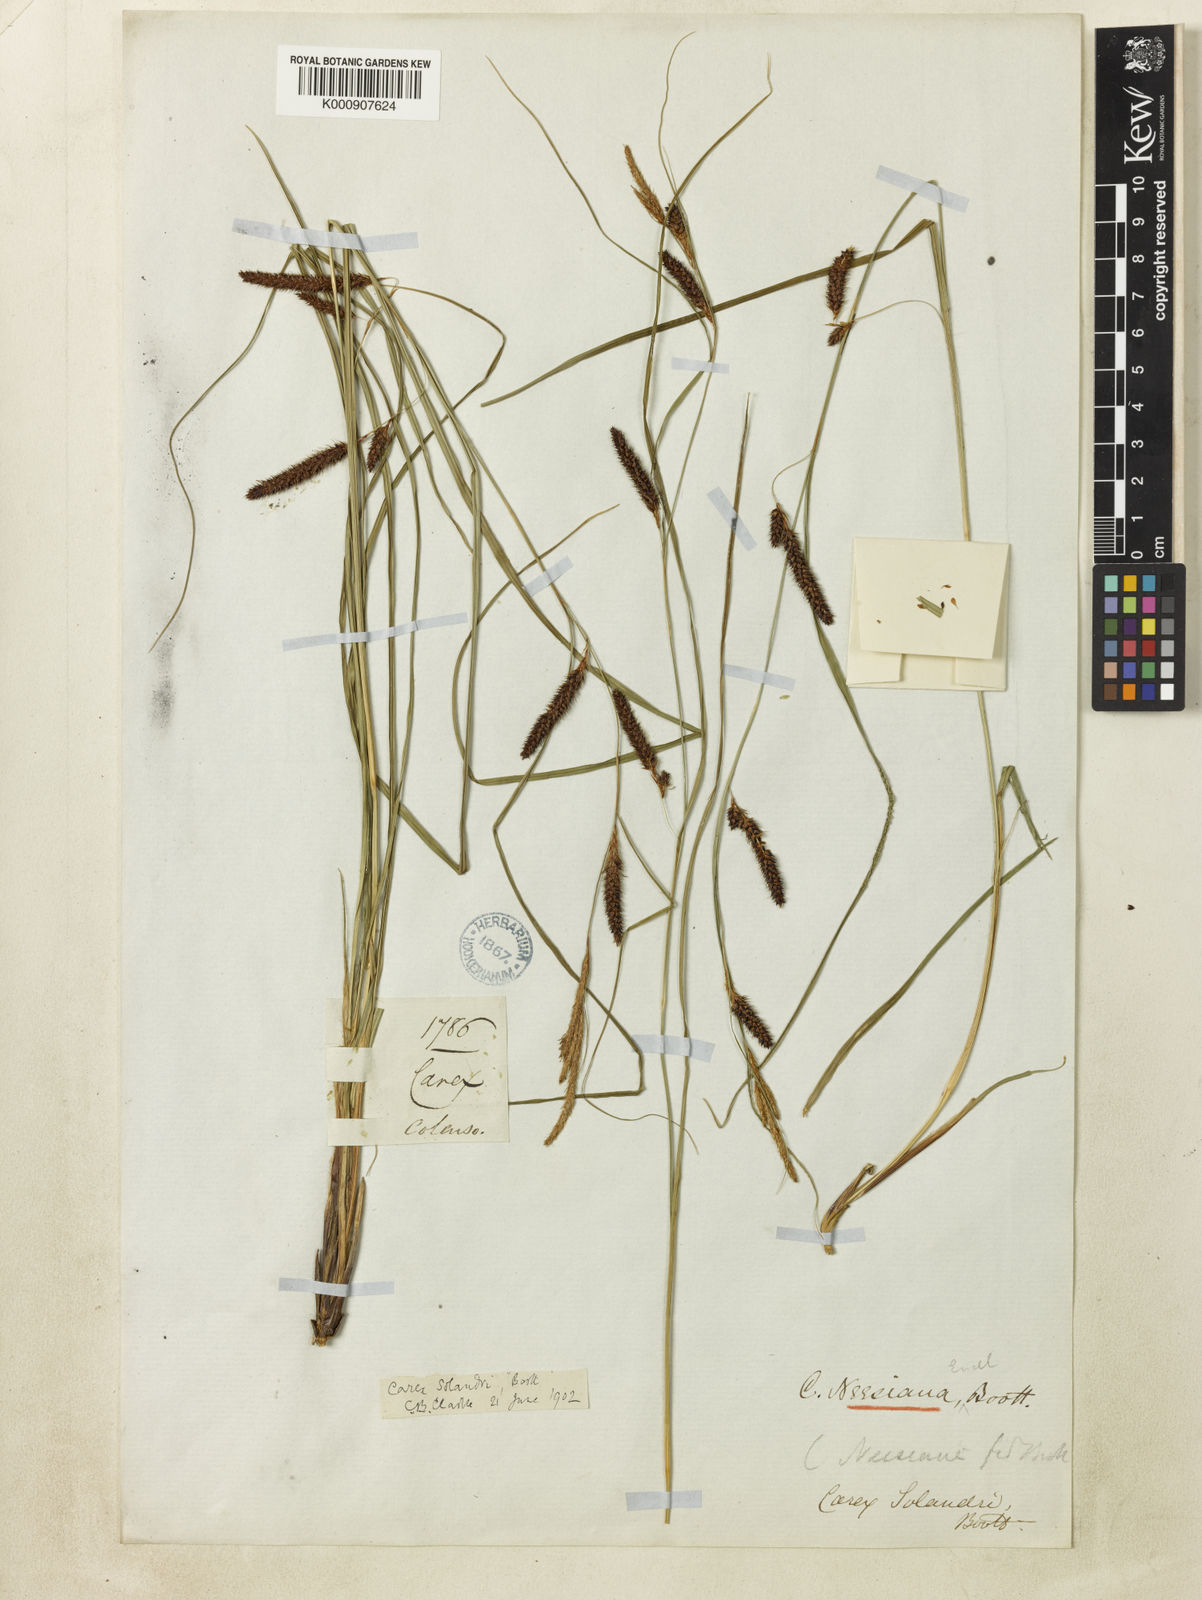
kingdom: Plantae
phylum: Tracheophyta
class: Liliopsida
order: Poales
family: Cyperaceae
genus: Carex
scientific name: Carex dissita
